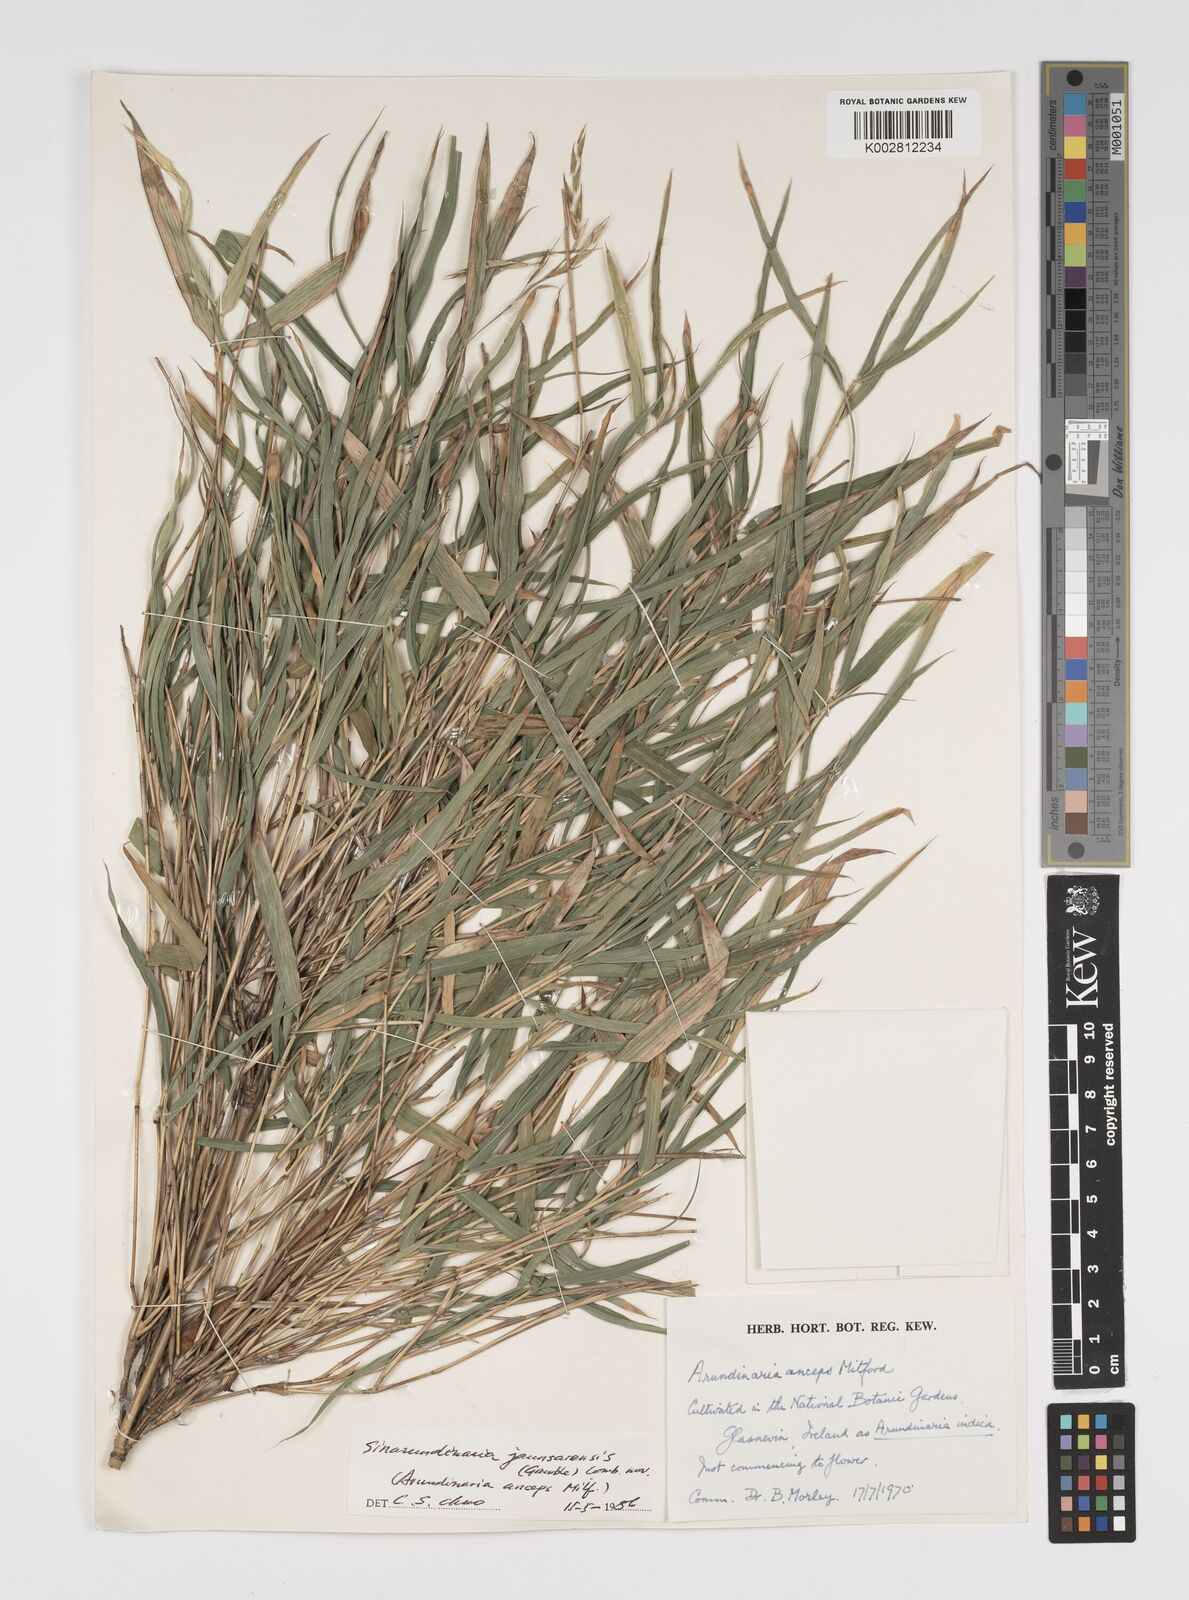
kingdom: Plantae
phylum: Tracheophyta
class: Liliopsida
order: Poales
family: Poaceae
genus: Yushania
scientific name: Yushania anceps
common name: Indian fountain-bamboo
